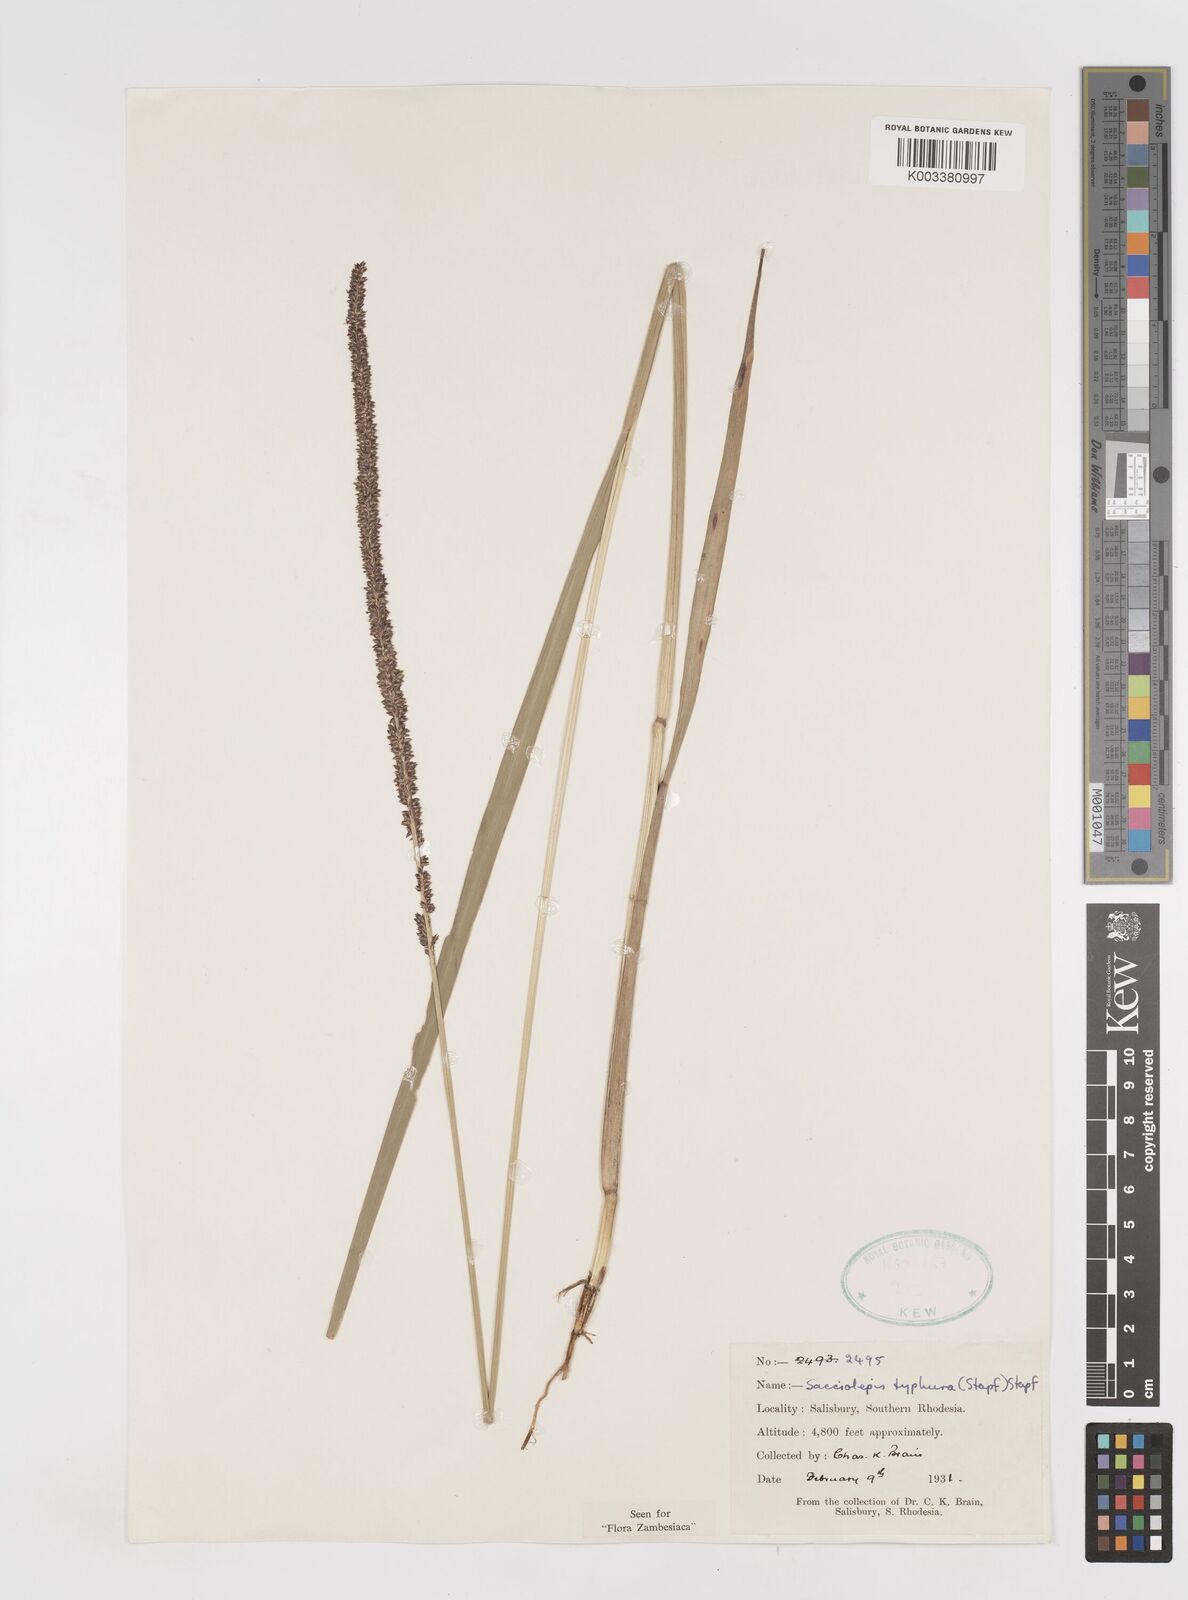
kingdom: Plantae
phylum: Tracheophyta
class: Liliopsida
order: Poales
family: Poaceae
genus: Sacciolepis
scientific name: Sacciolepis typhura
